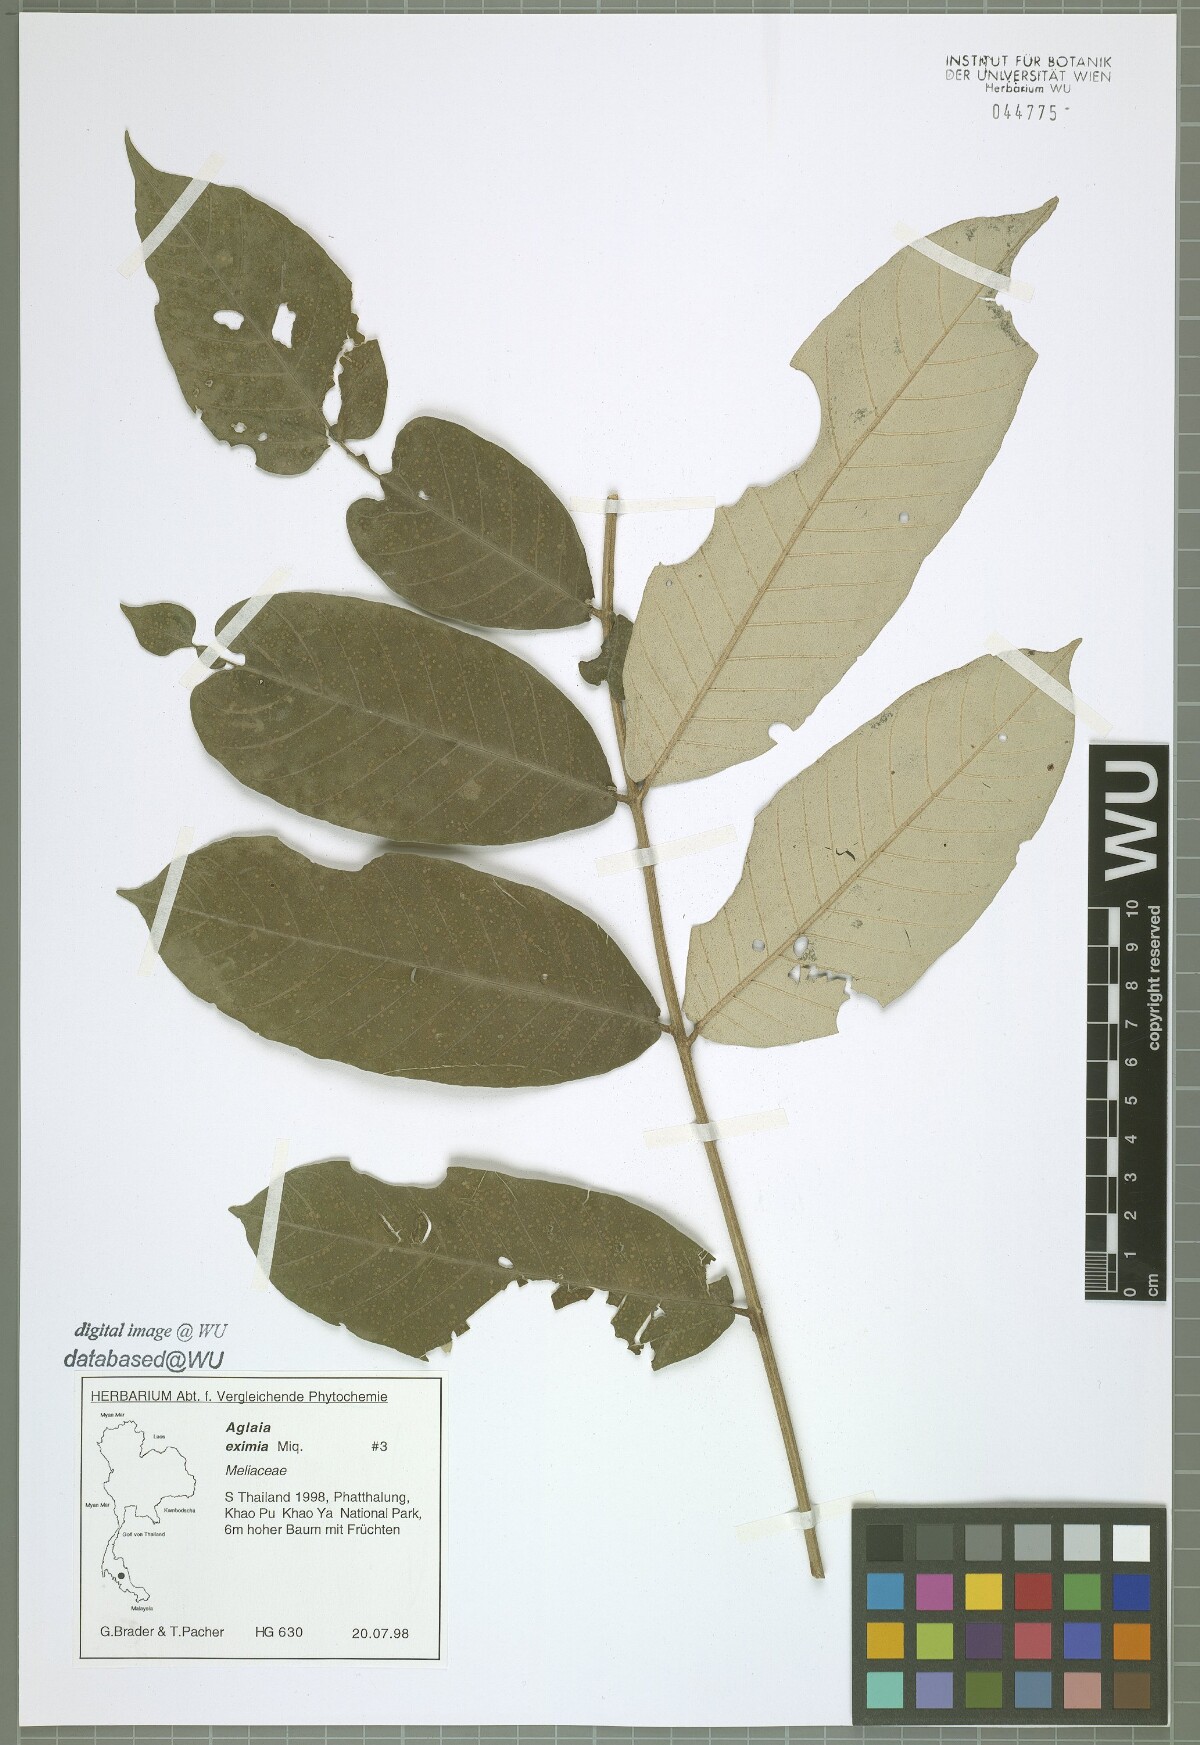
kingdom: Plantae
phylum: Tracheophyta
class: Magnoliopsida
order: Sapindales
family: Meliaceae
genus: Aglaia
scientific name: Aglaia eximia
